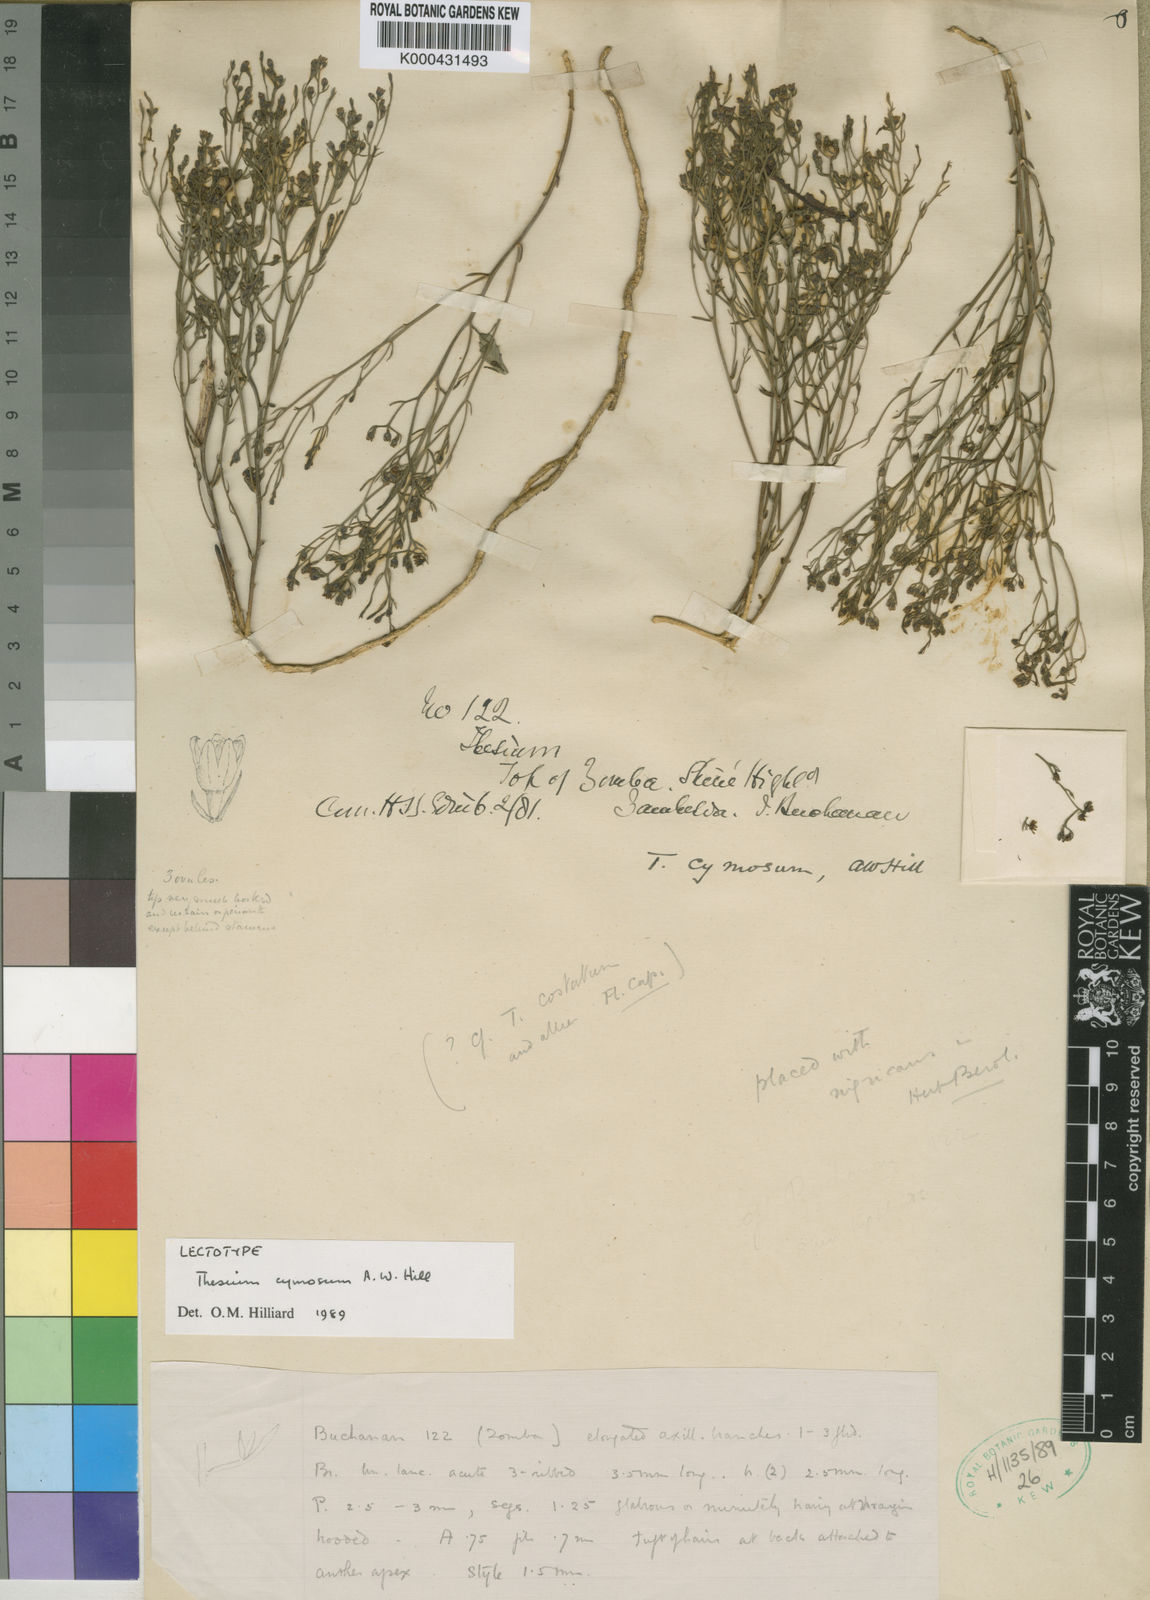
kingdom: Plantae
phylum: Tracheophyta
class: Magnoliopsida
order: Santalales
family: Thesiaceae
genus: Thesium
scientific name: Thesium cymosum
